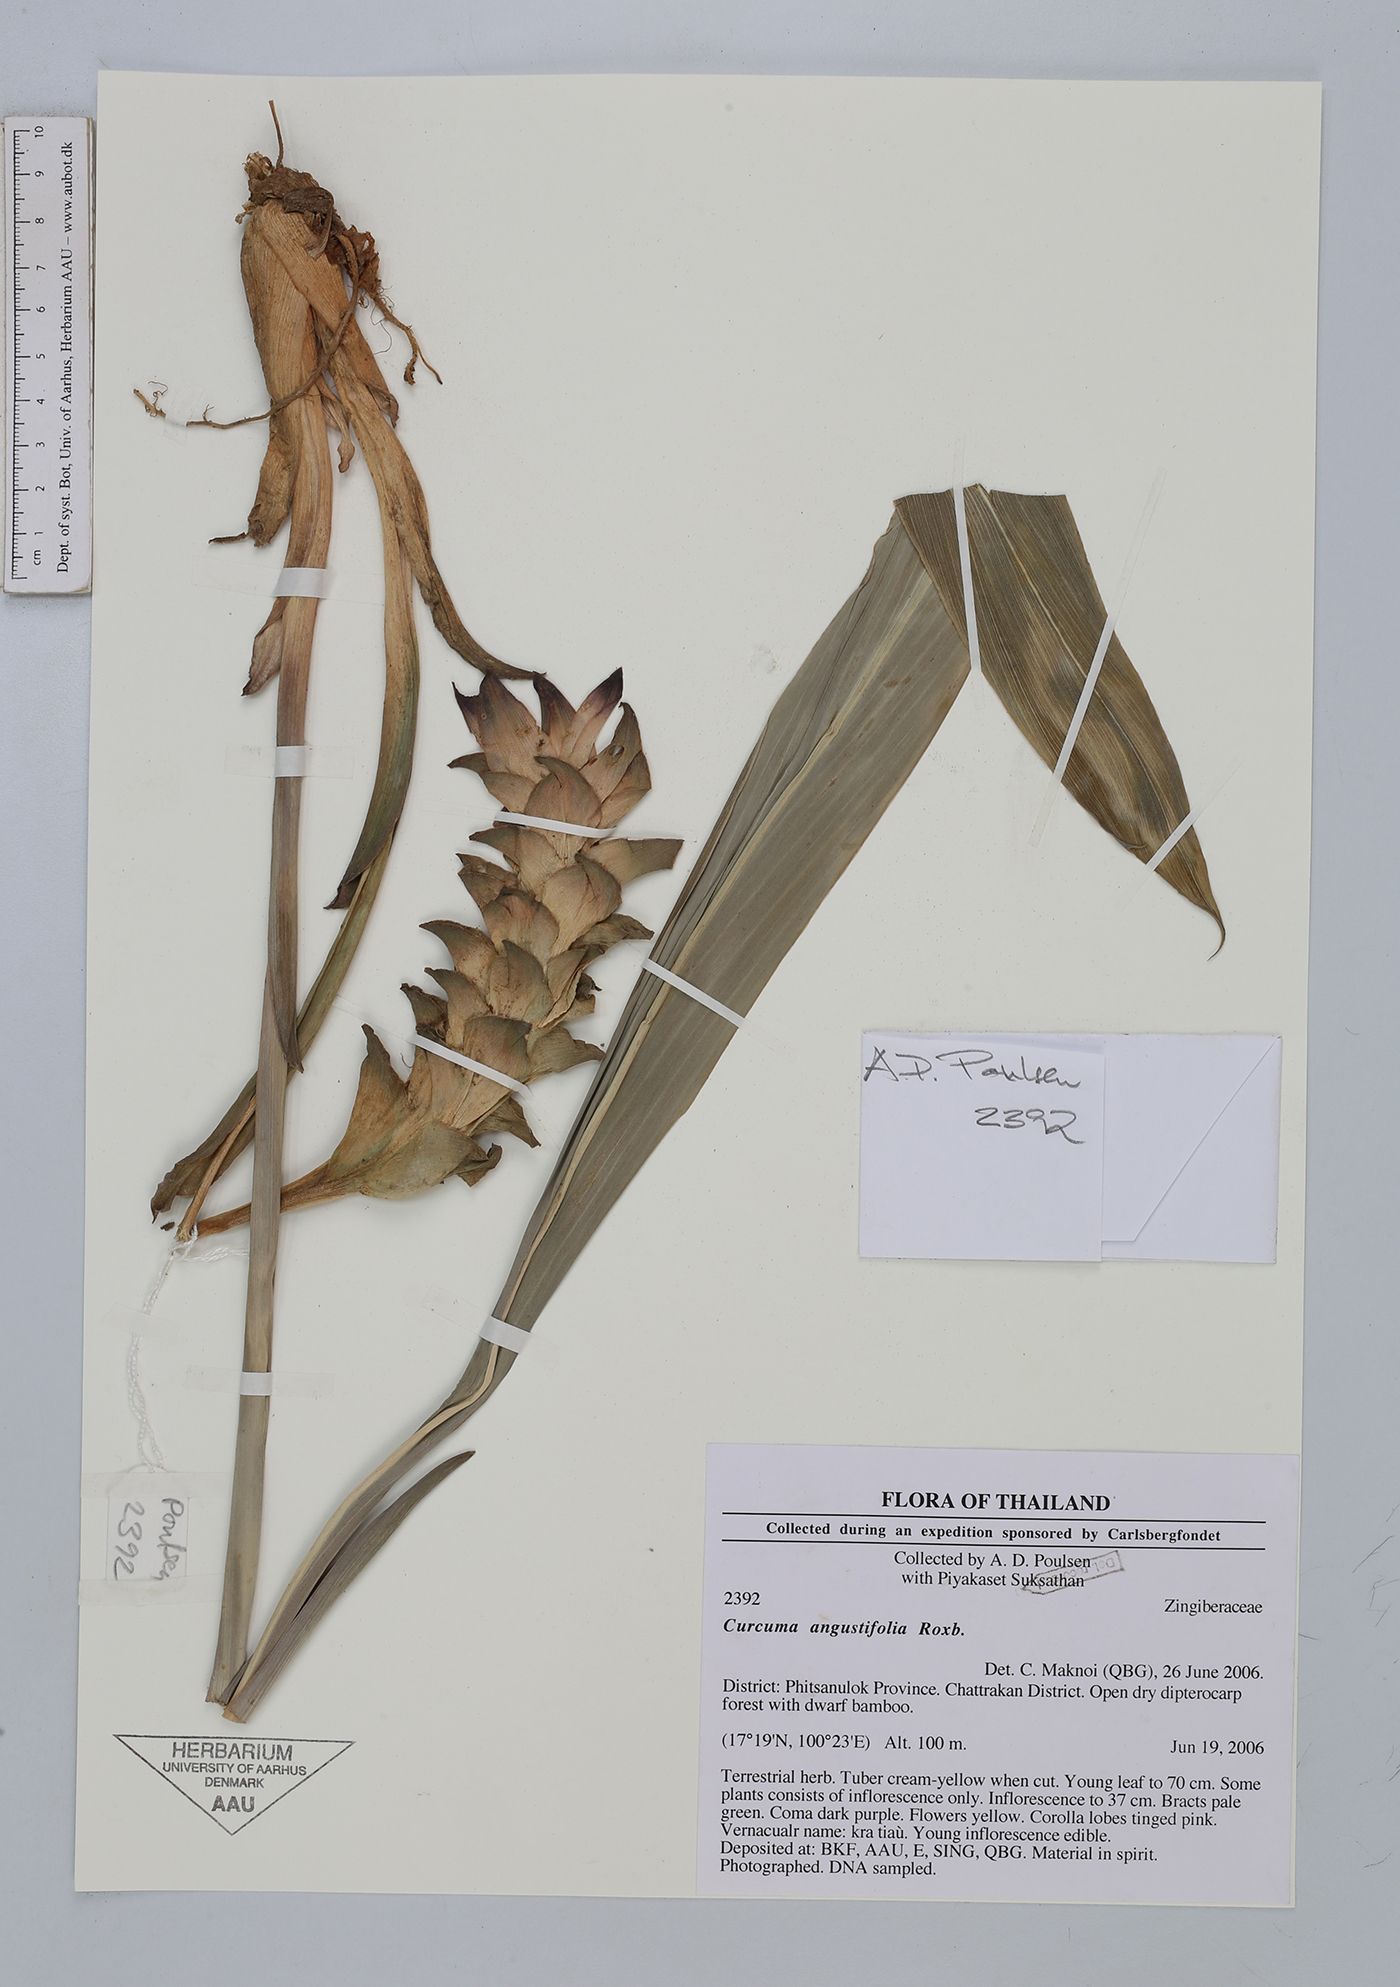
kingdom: Plantae
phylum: Tracheophyta
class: Liliopsida
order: Zingiberales
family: Zingiberaceae
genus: Curcuma
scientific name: Curcuma angustifolia
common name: East indian arrowroot
